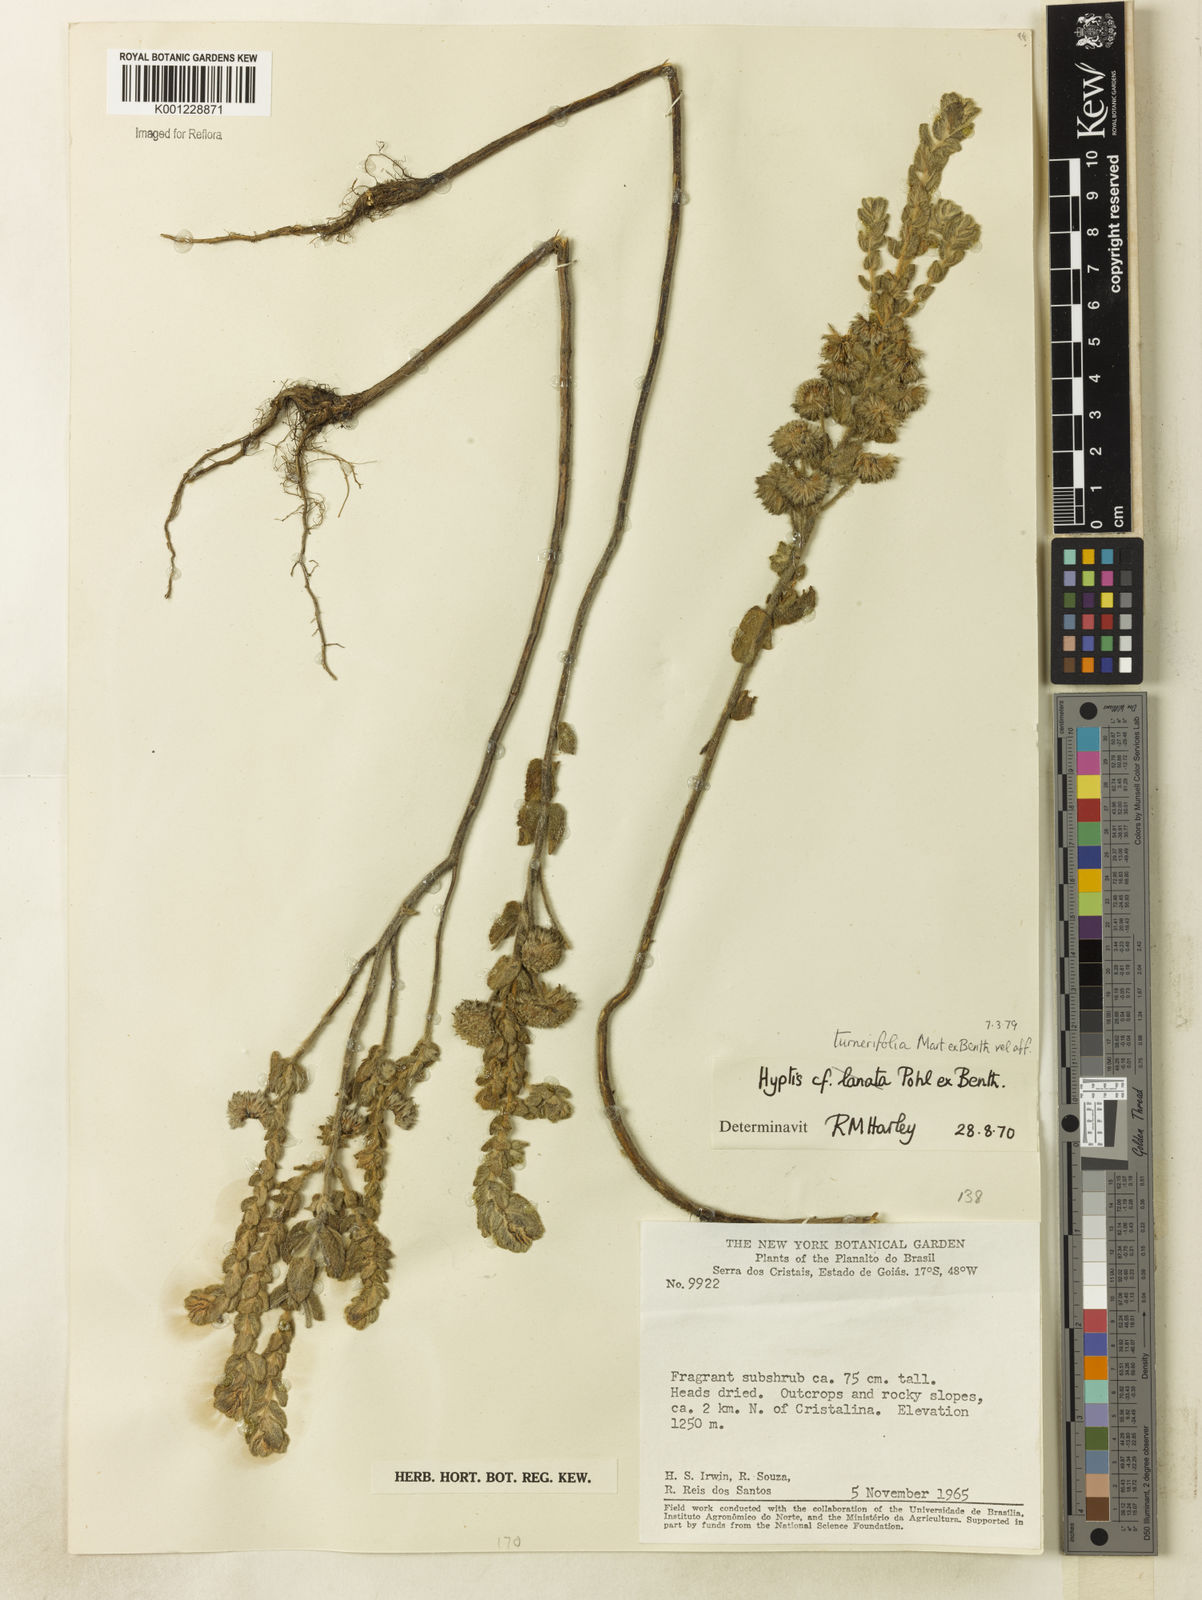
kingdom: Plantae
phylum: Tracheophyta
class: Magnoliopsida
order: Lamiales
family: Lamiaceae
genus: Hyptis
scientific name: Hyptis turnerifolia
